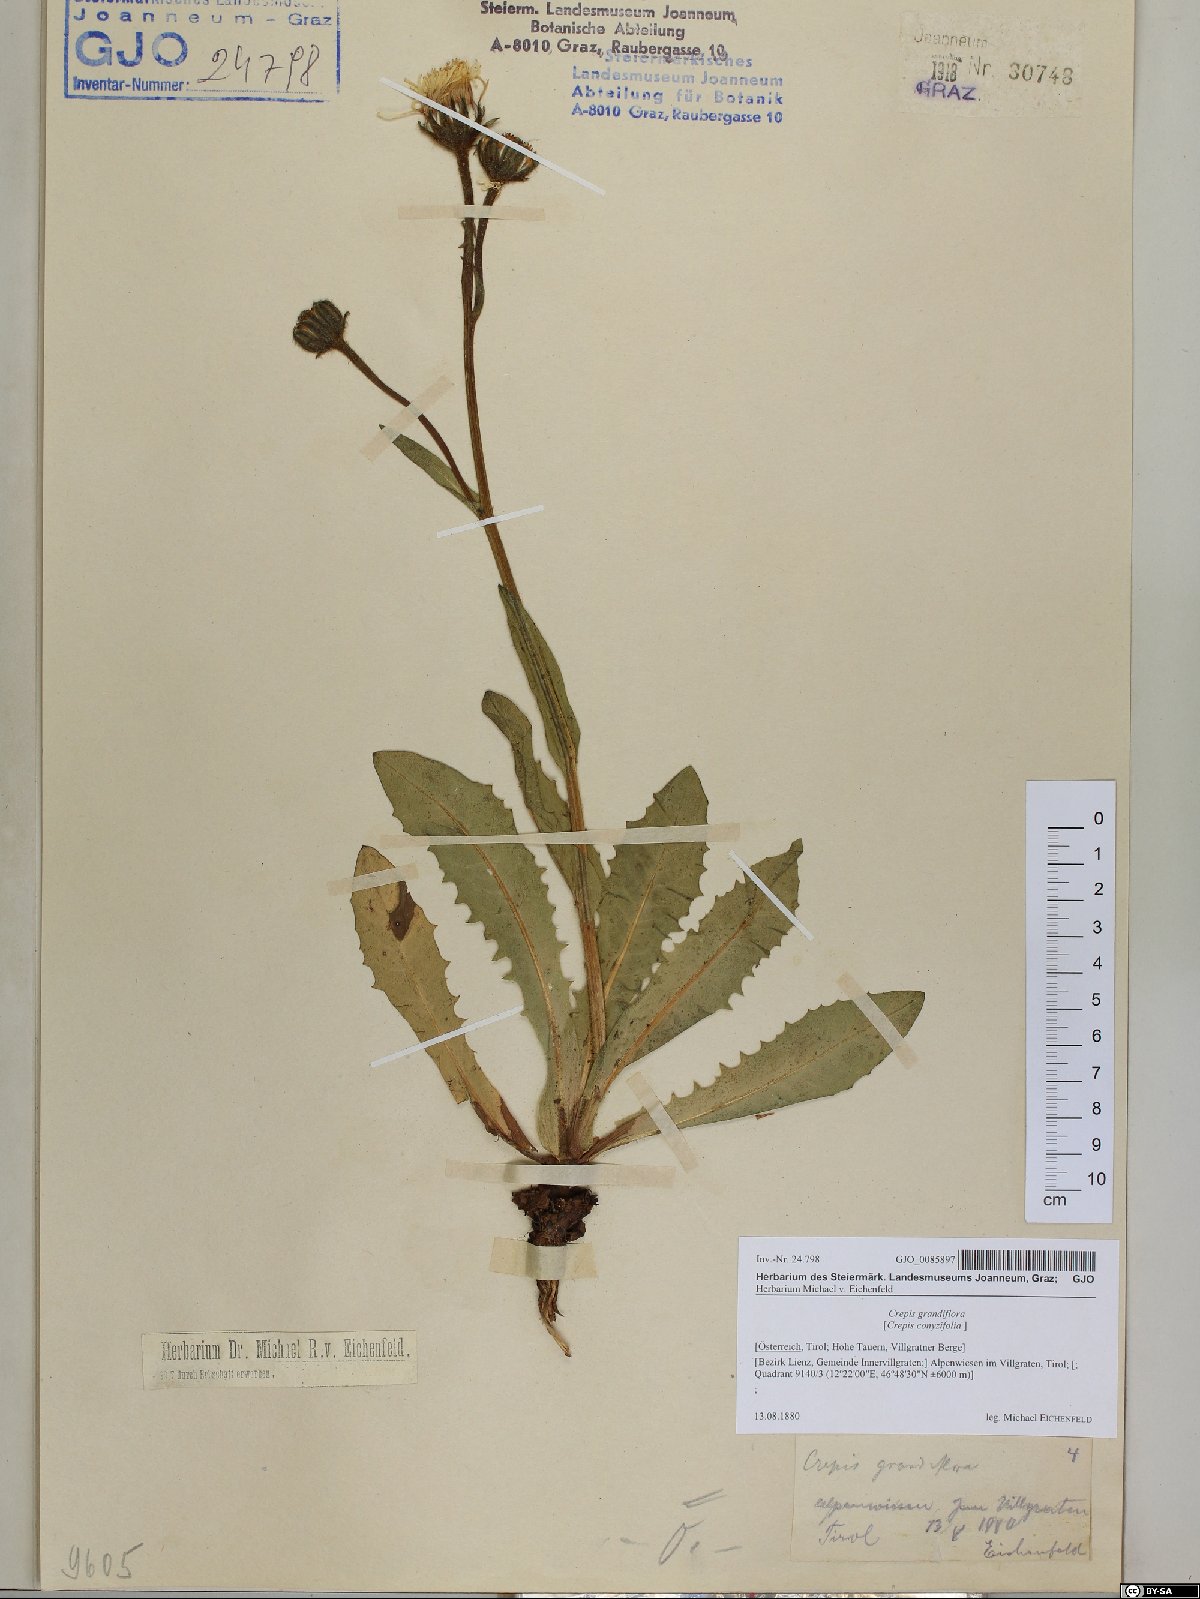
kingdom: Plantae
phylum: Tracheophyta
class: Magnoliopsida
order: Asterales
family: Asteraceae
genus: Crepis
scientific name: Crepis pyrenaica
